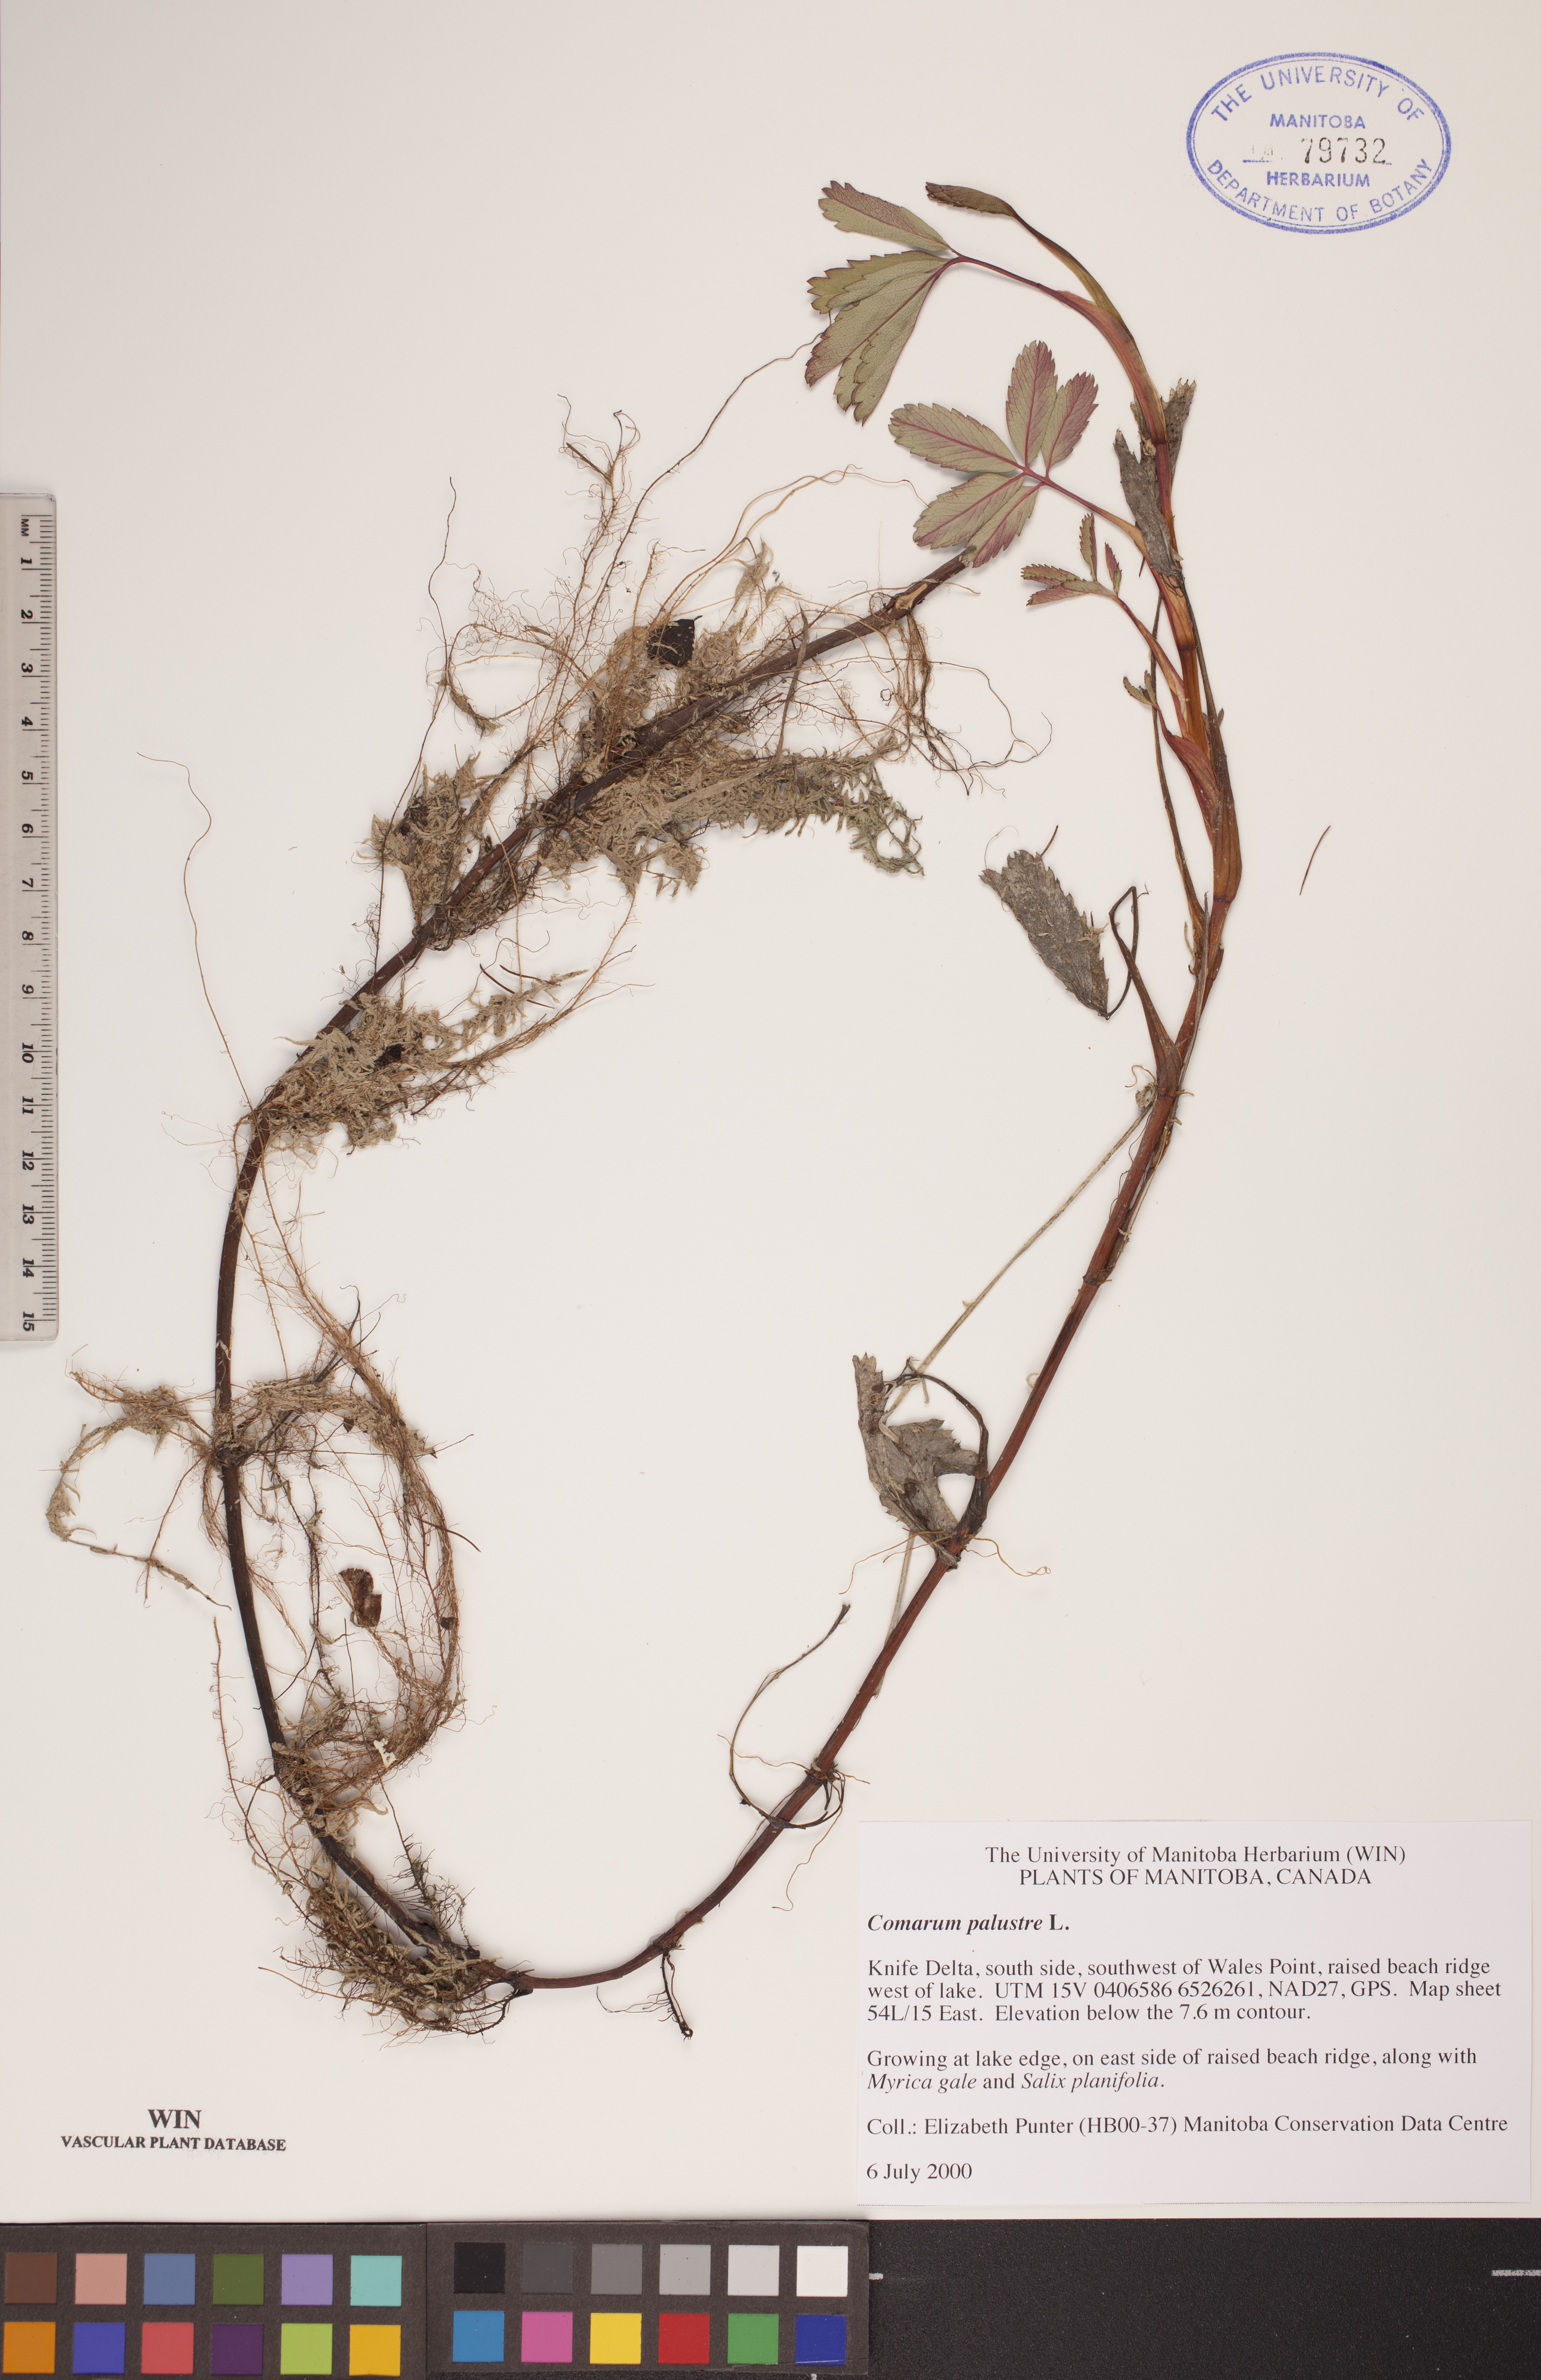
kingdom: Plantae
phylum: Tracheophyta
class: Magnoliopsida
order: Rosales
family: Rosaceae
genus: Comarum
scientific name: Comarum palustre
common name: Marsh cinquefoil
